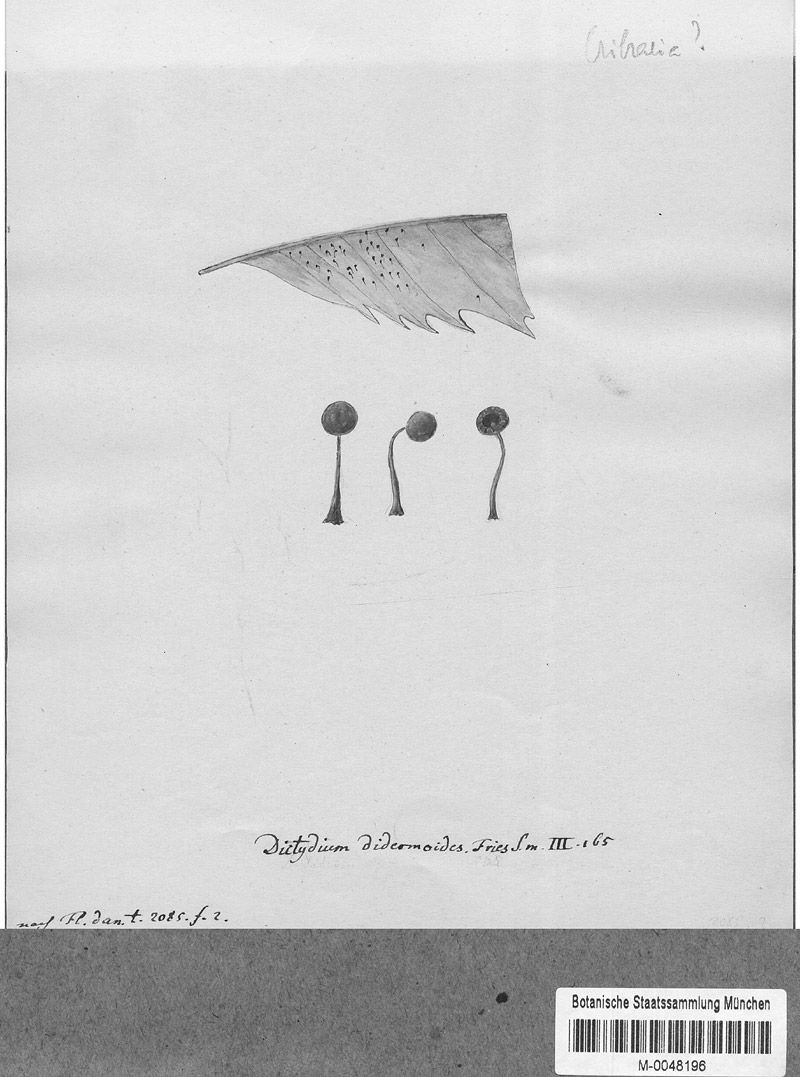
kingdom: Protozoa
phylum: Mycetozoa
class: Myxomycetes
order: Cribrariales
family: Cribrariaceae
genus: Cribraria
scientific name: Cribraria
